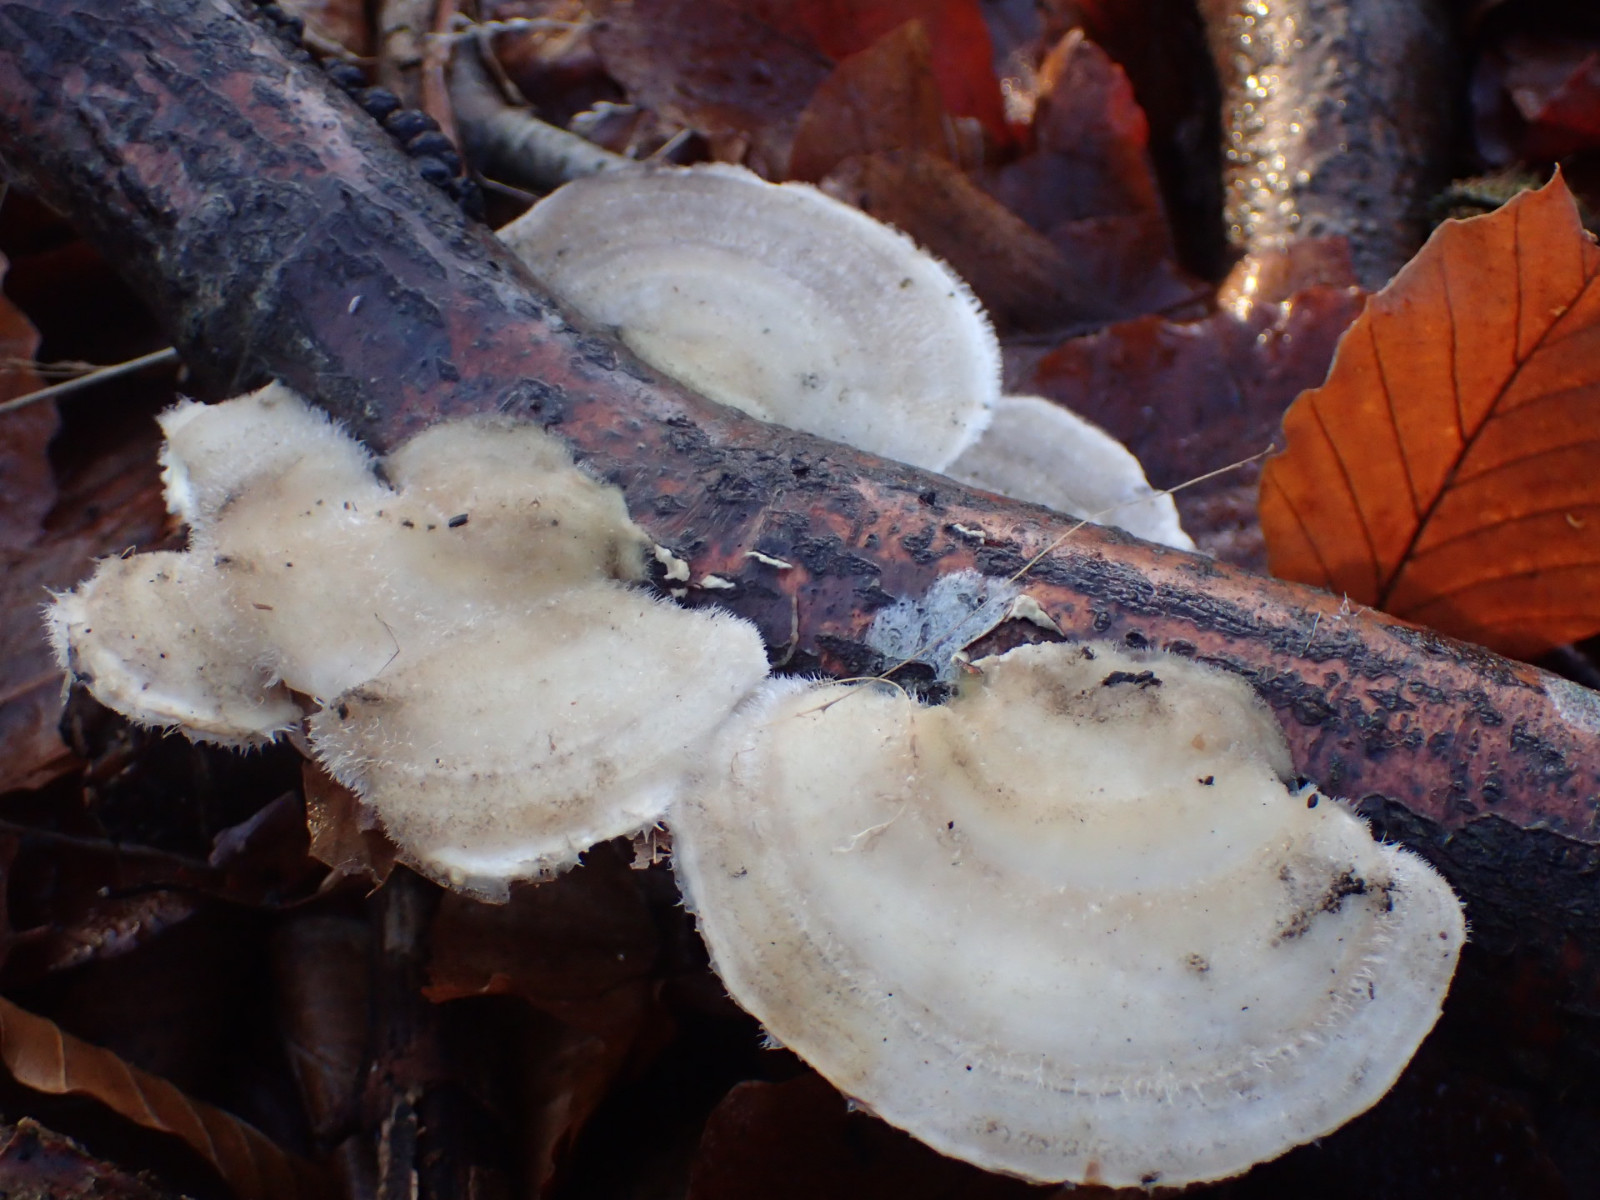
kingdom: Fungi
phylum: Basidiomycota
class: Agaricomycetes
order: Polyporales
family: Polyporaceae
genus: Trametes
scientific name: Trametes hirsuta
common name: håret læderporesvamp
